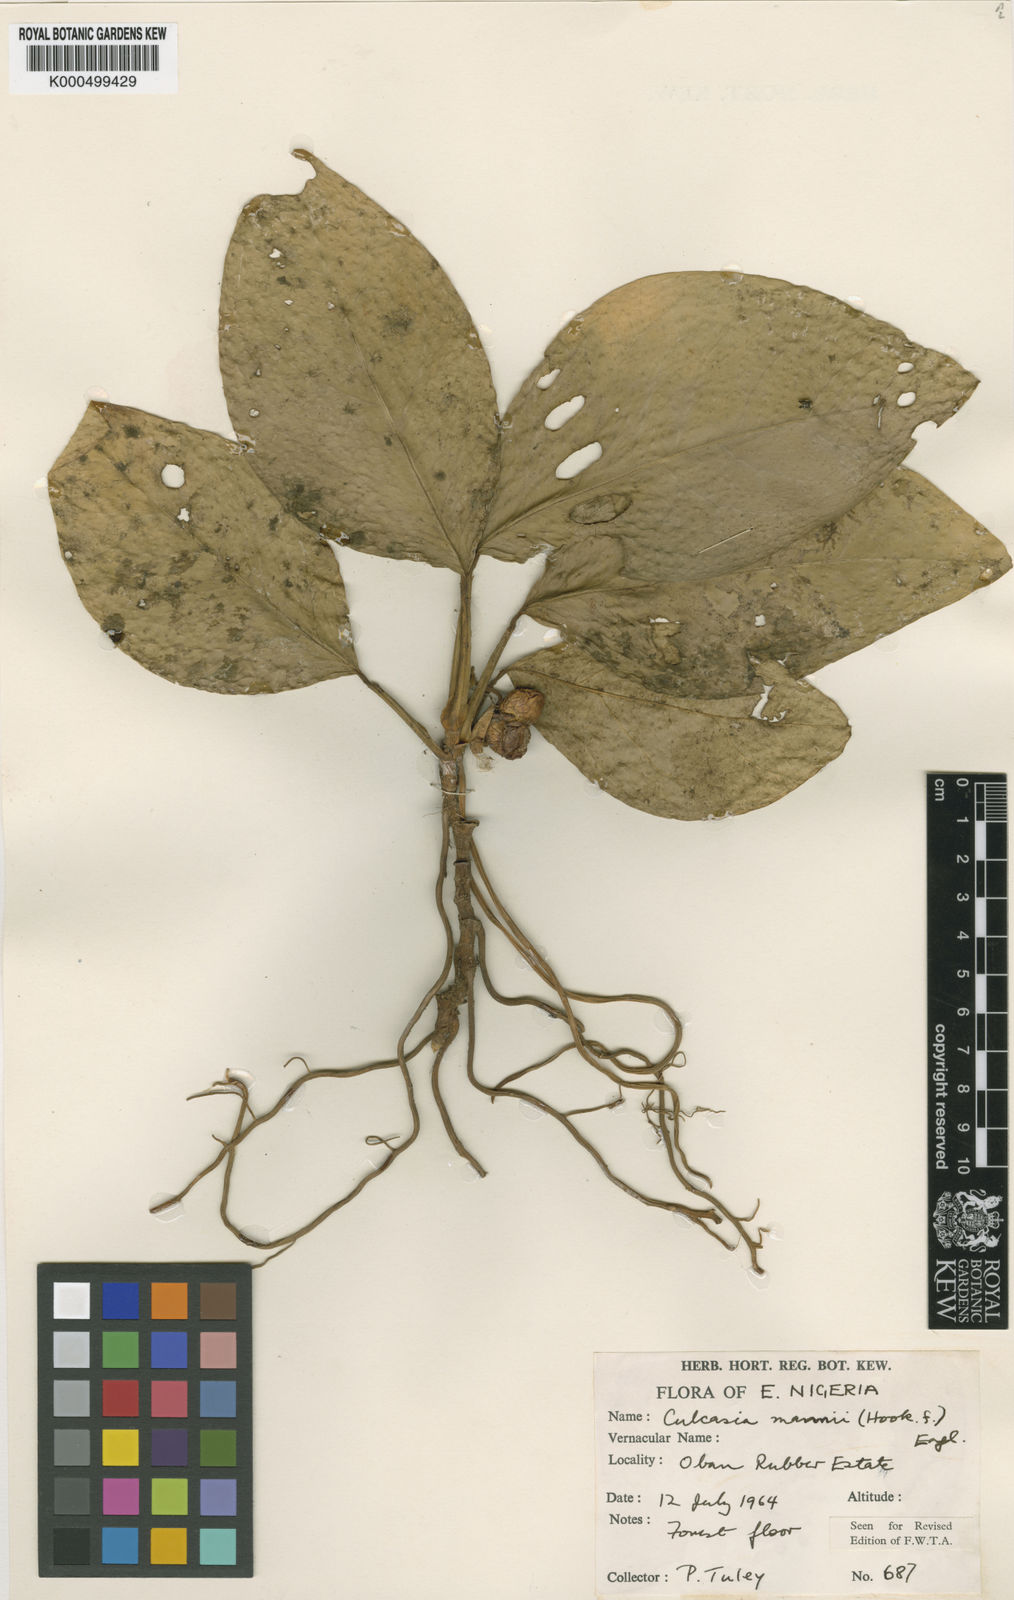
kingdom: Plantae
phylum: Tracheophyta
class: Liliopsida
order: Alismatales
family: Araceae
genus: Culcasia
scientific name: Culcasia mannii
